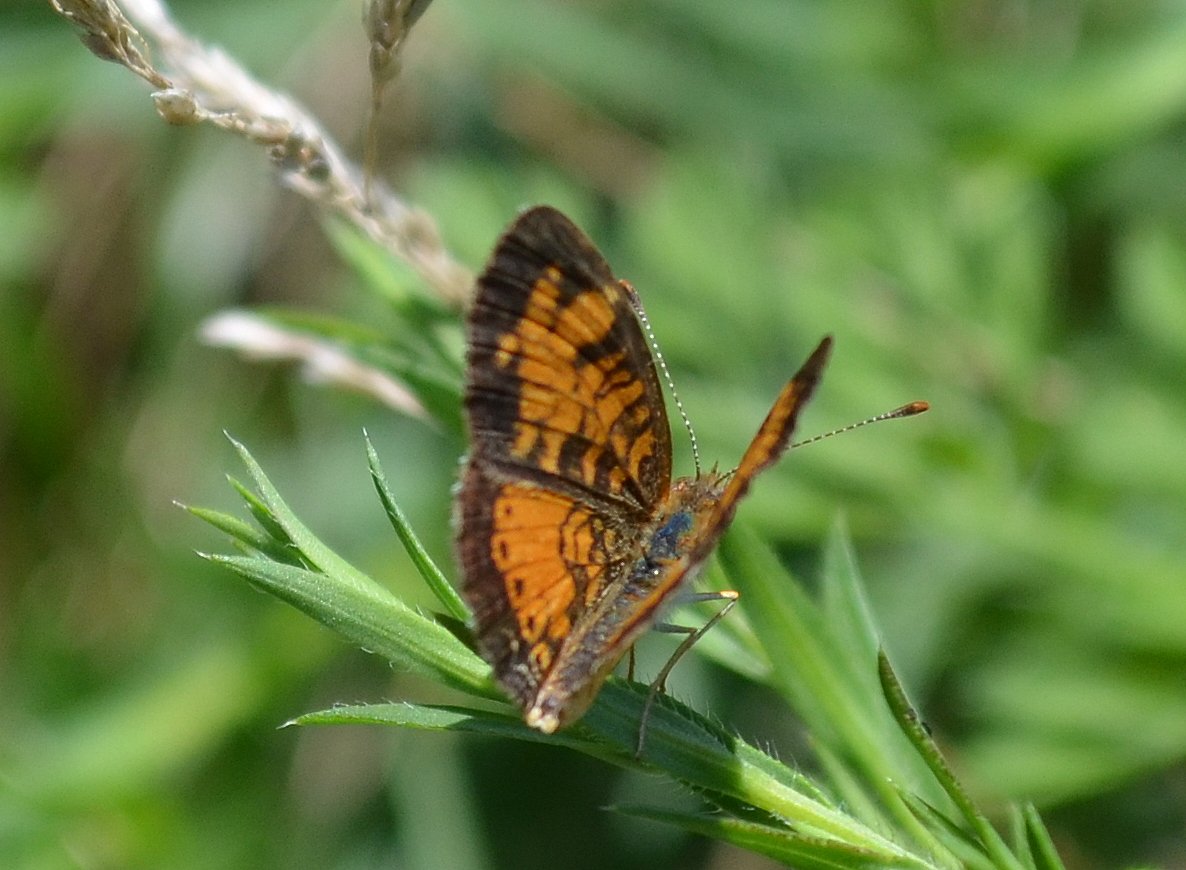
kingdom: Animalia
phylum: Arthropoda
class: Insecta
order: Lepidoptera
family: Nymphalidae
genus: Phyciodes
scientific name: Phyciodes tharos
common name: Northern Crescent
